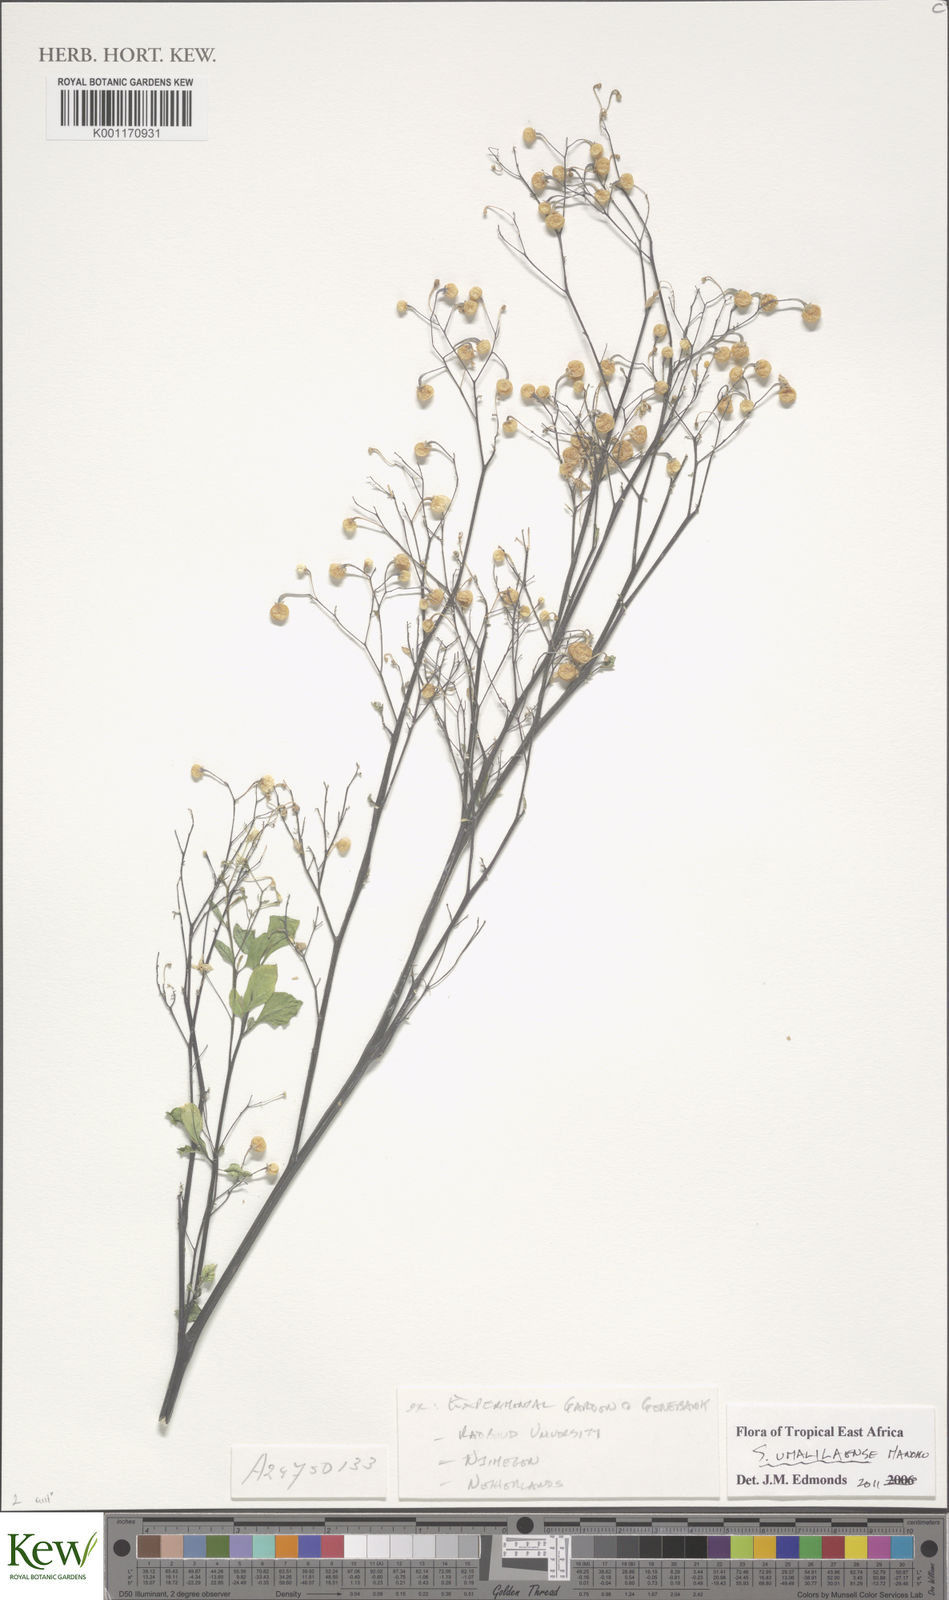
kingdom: Plantae
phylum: Tracheophyta
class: Magnoliopsida
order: Solanales
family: Solanaceae
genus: Solanum
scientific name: Solanum umalilaense
